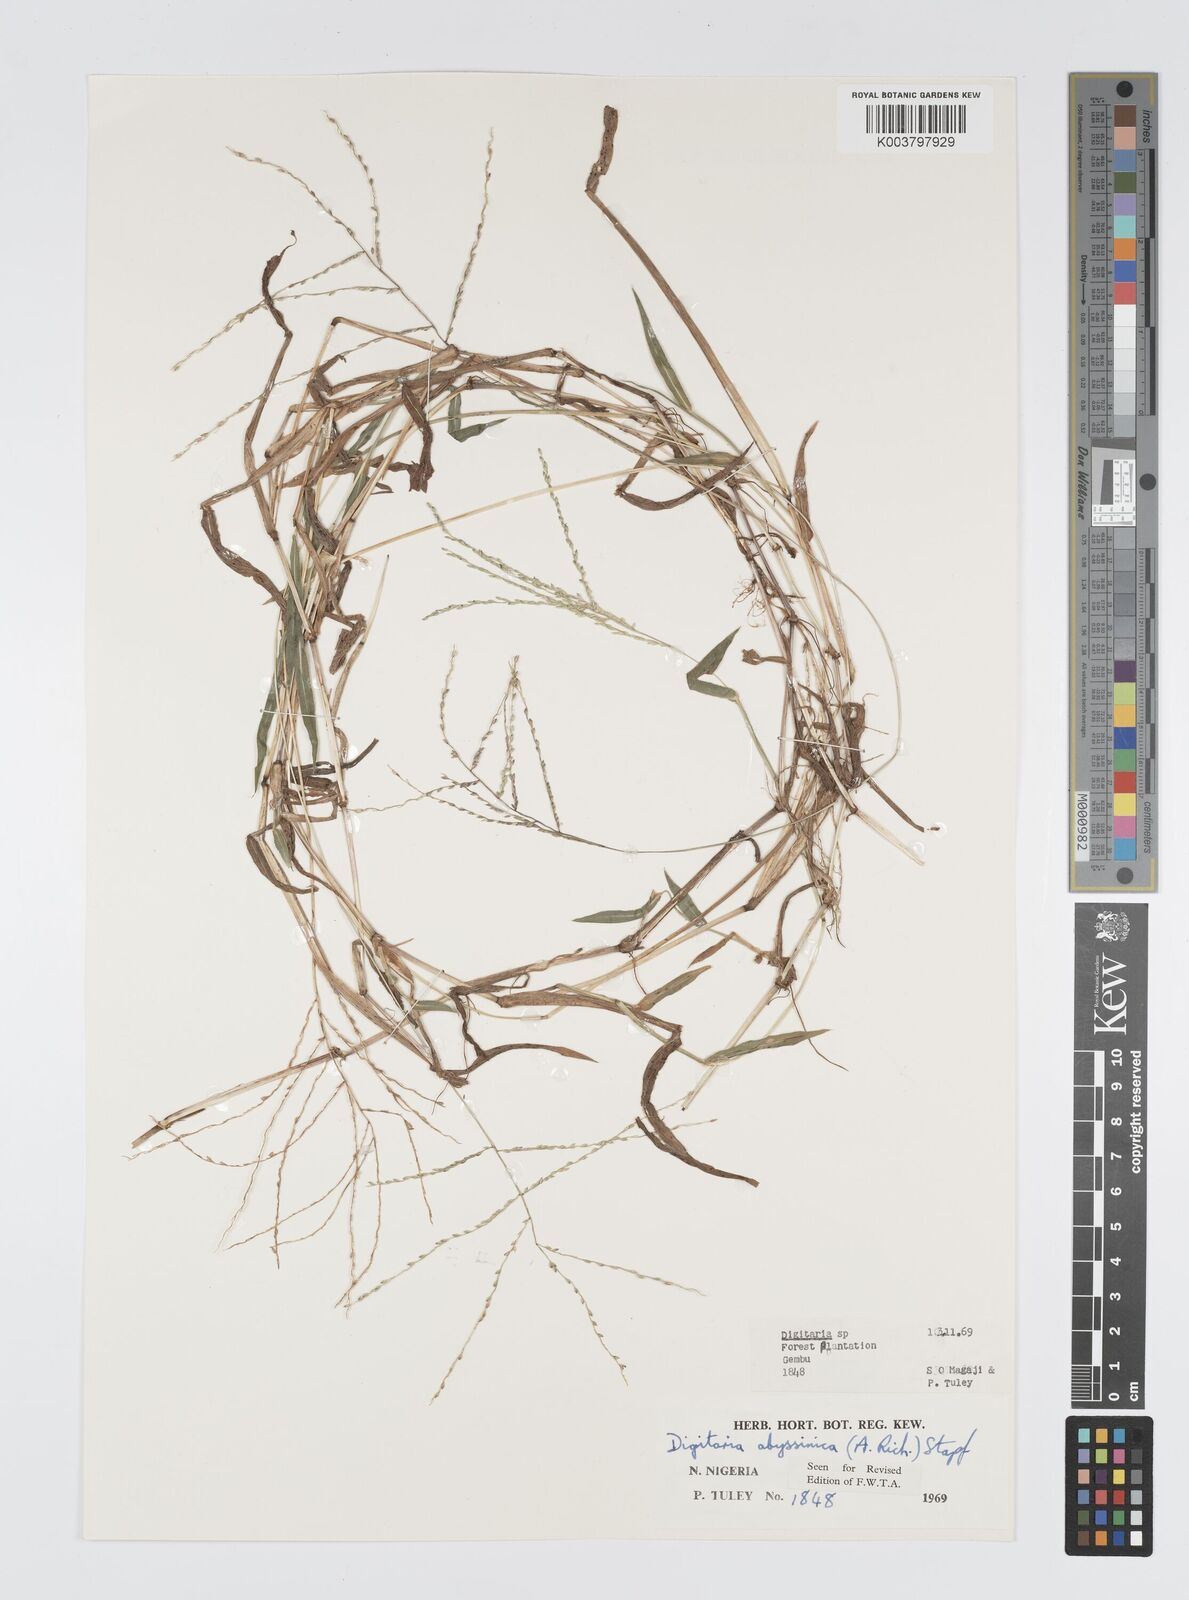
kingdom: Plantae
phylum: Tracheophyta
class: Liliopsida
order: Poales
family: Poaceae
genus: Digitaria
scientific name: Digitaria abyssinica
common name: African couchgrass
